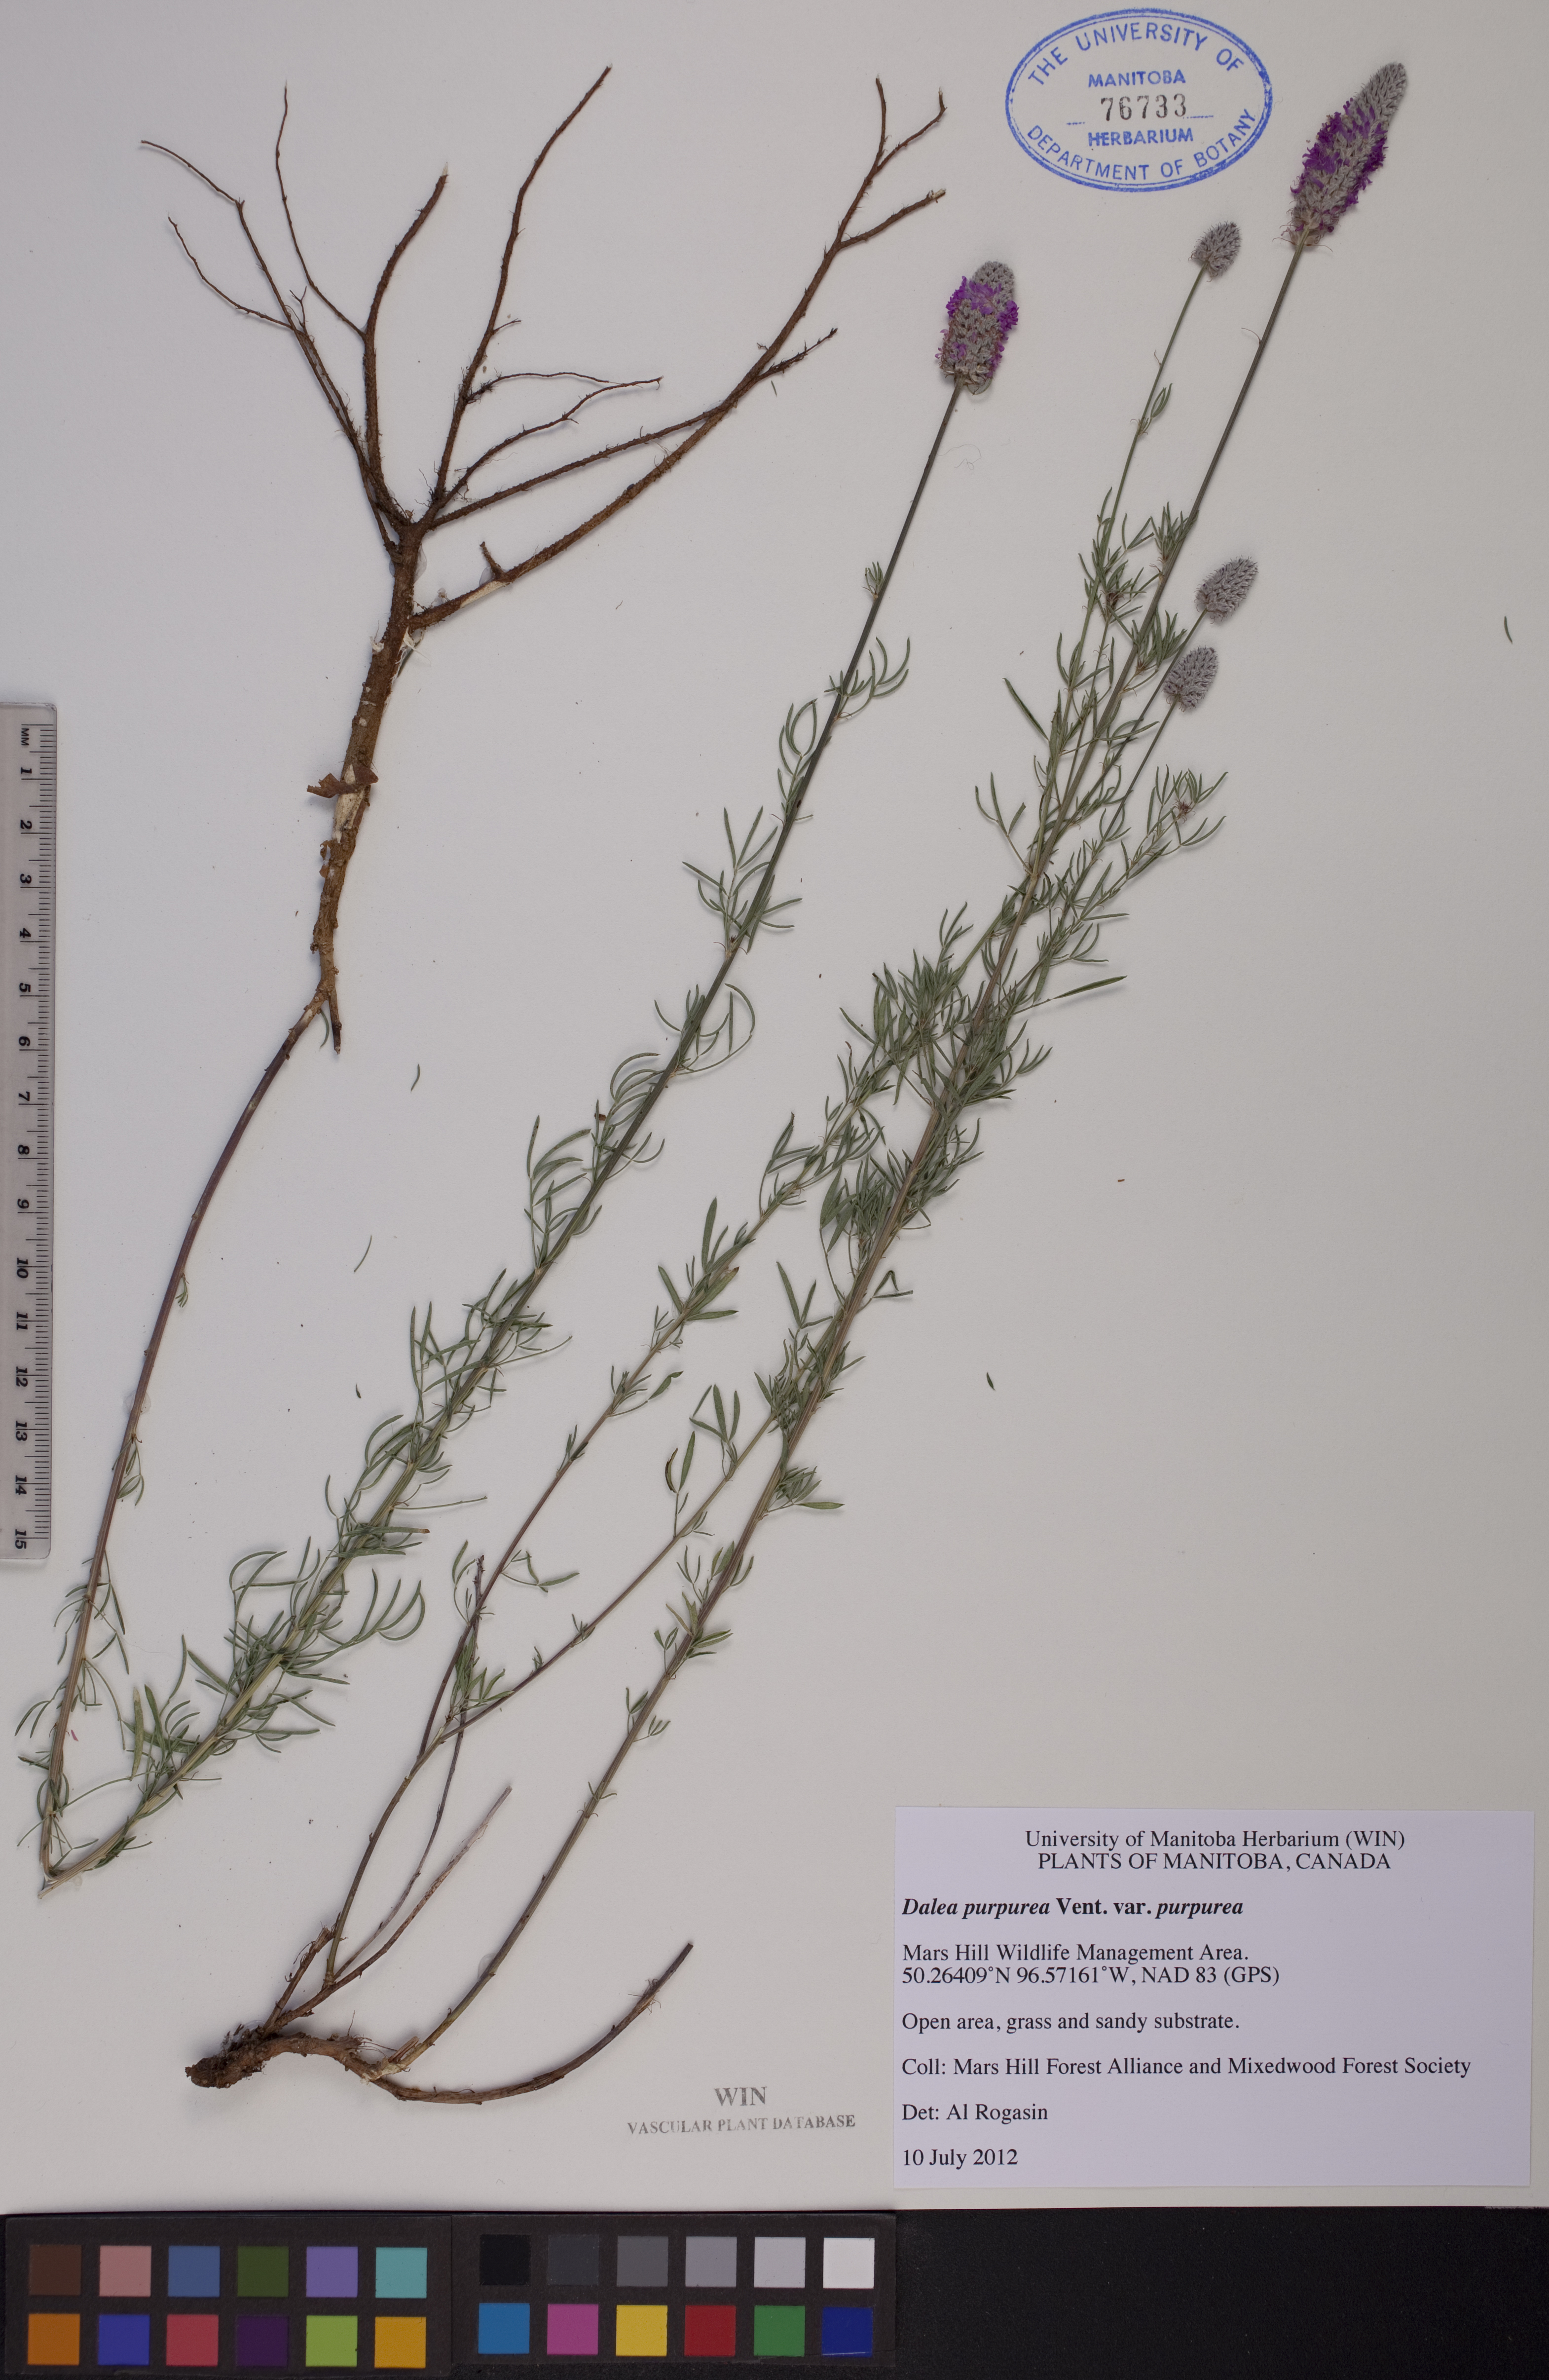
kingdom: Plantae
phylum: Tracheophyta
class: Magnoliopsida
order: Fabales
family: Fabaceae
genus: Dalea
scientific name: Dalea purpurea
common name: Purple prairie-clover
